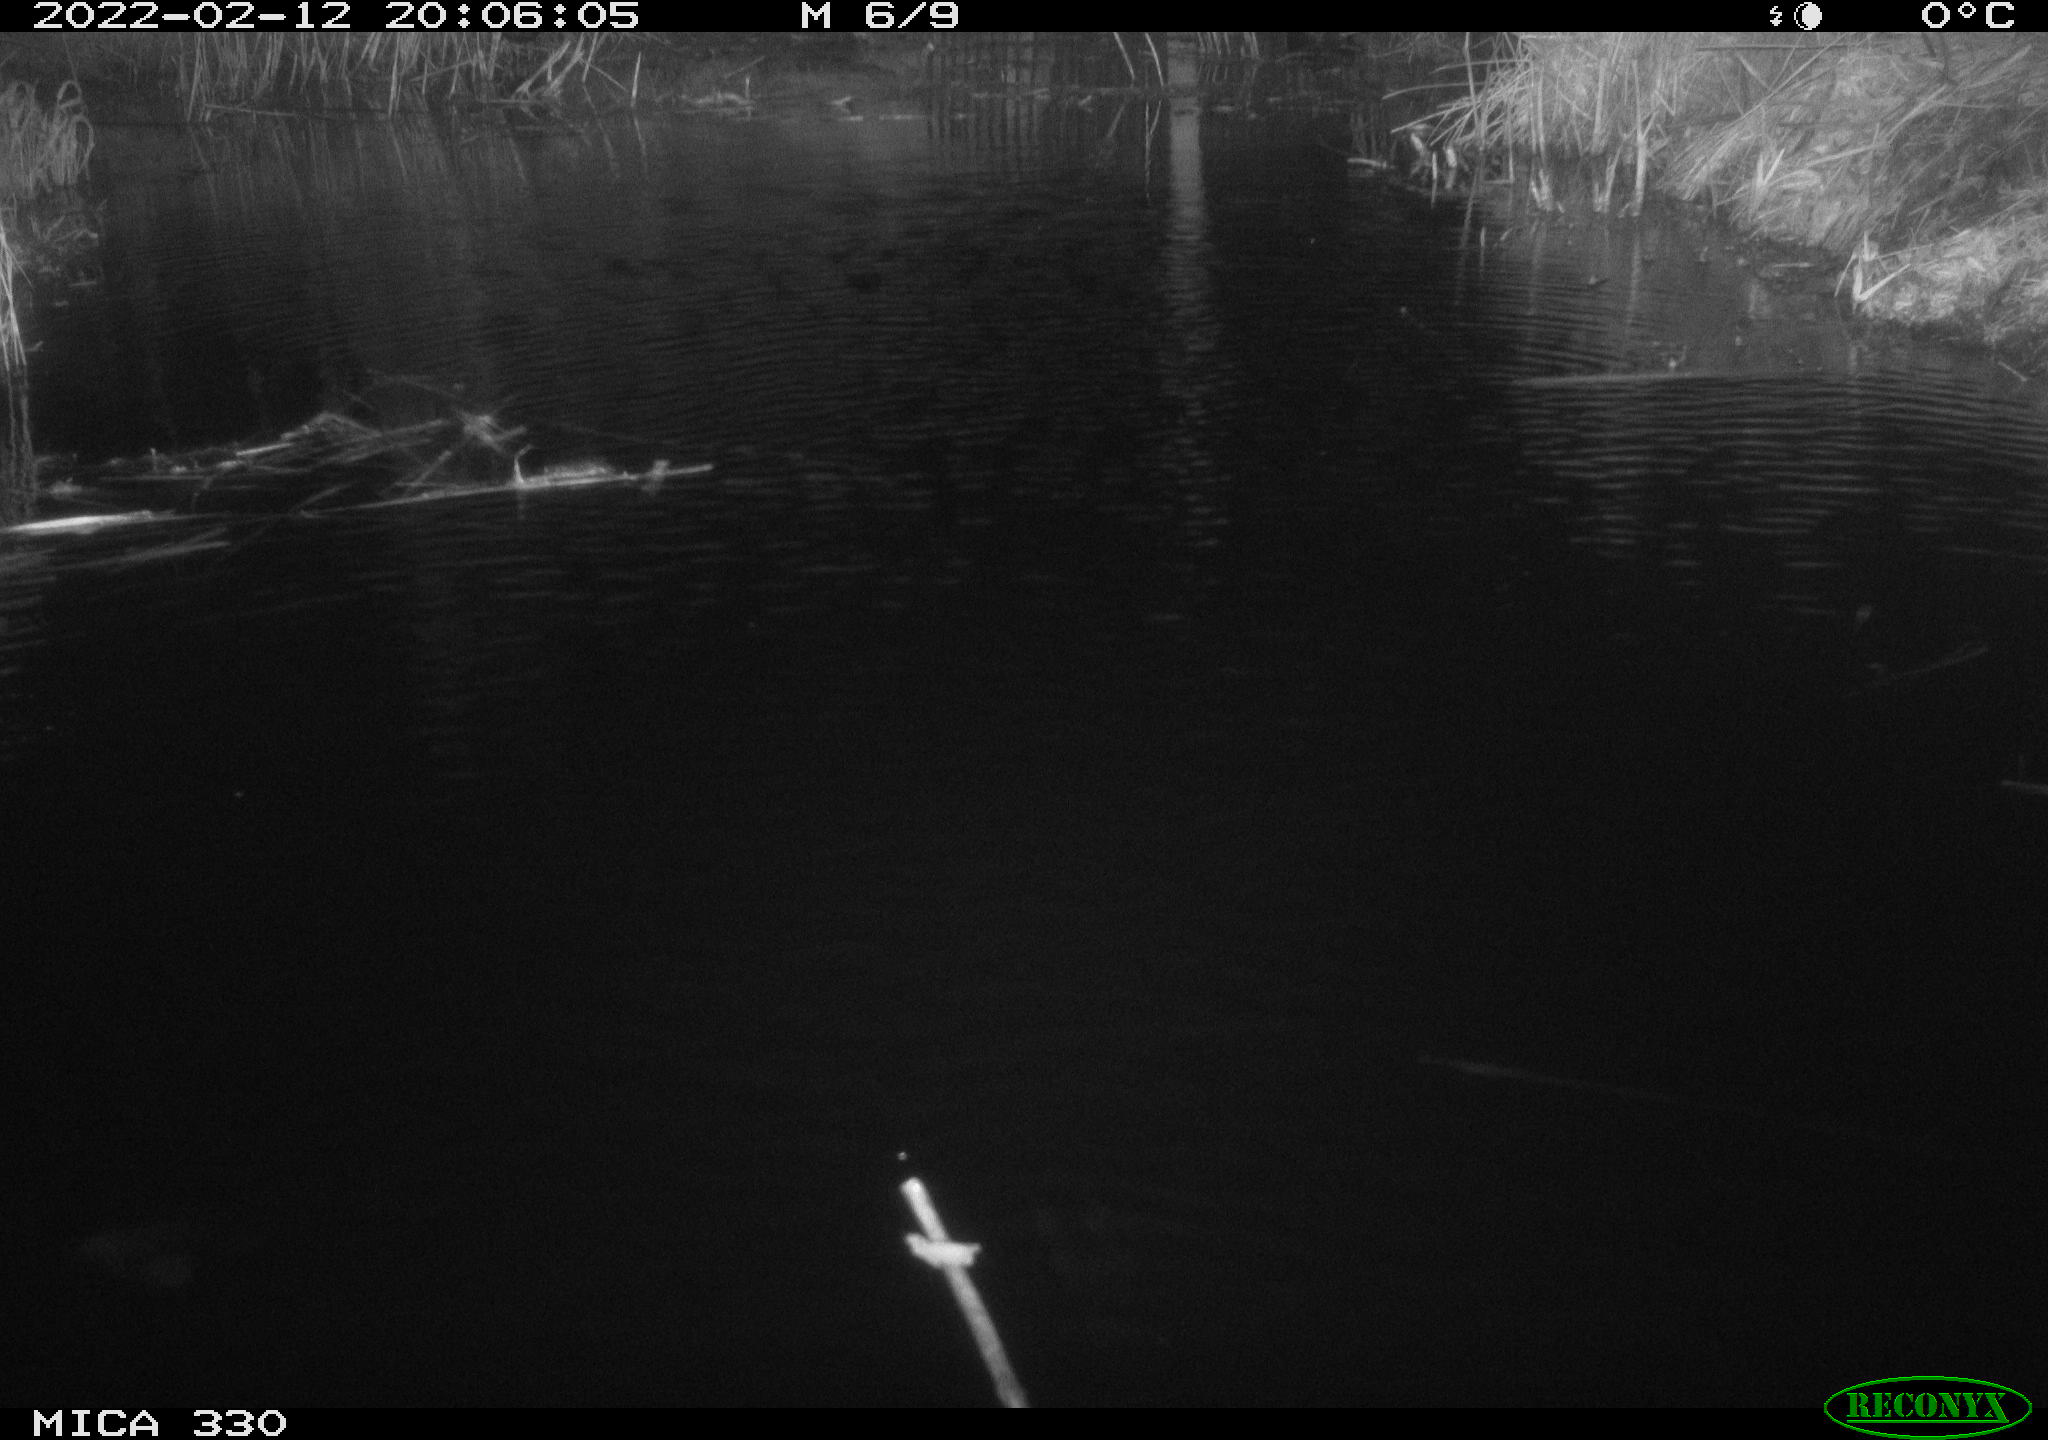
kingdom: Animalia
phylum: Chordata
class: Aves
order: Gruiformes
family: Rallidae
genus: Gallinula
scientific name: Gallinula chloropus
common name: Common moorhen
